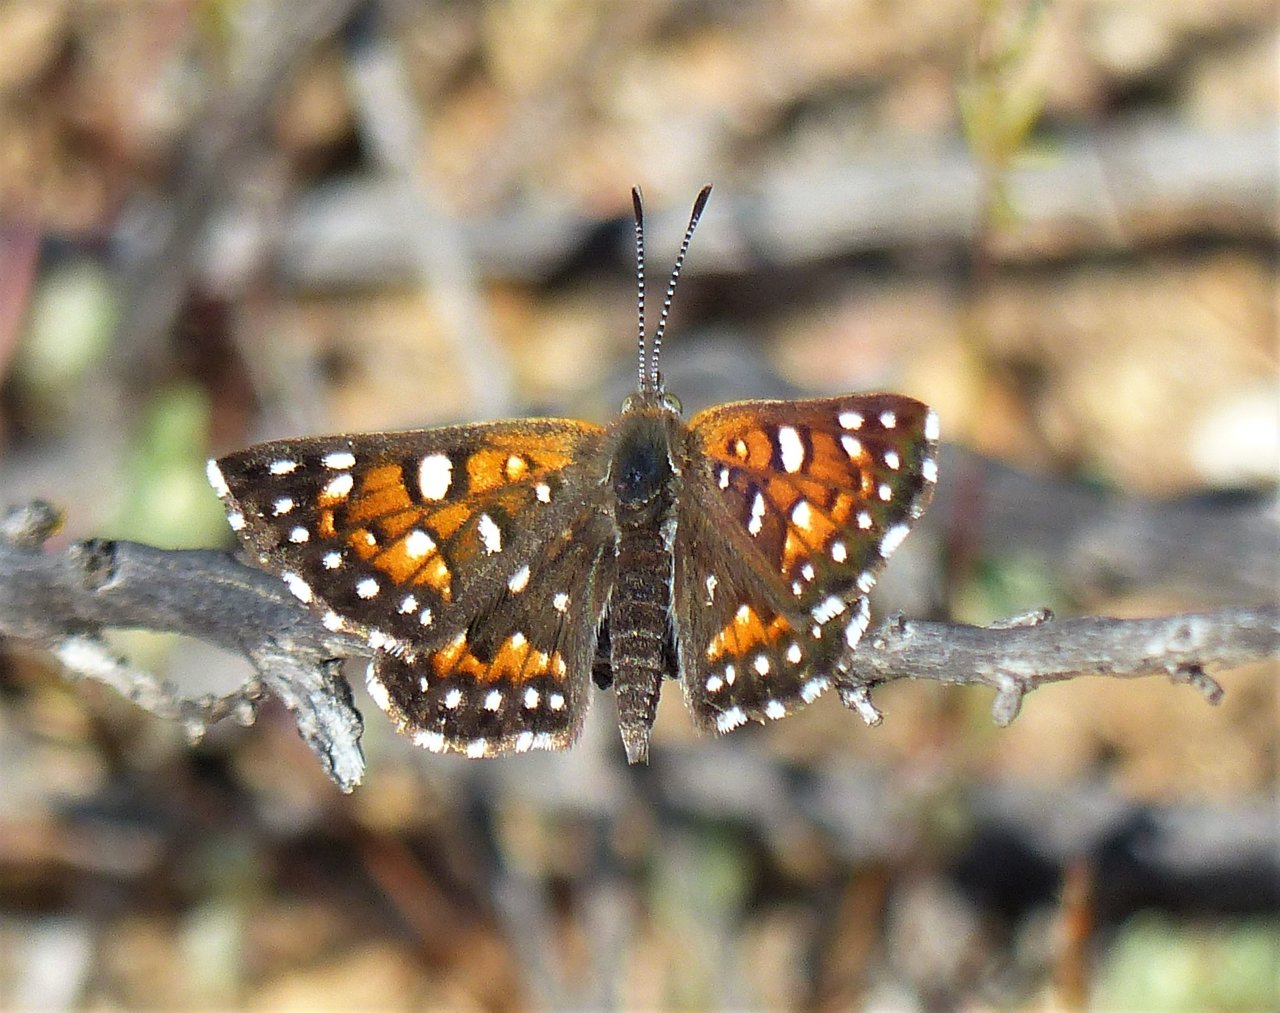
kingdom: Animalia
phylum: Arthropoda
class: Insecta
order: Lepidoptera
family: Riodinidae
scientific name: Riodinidae
